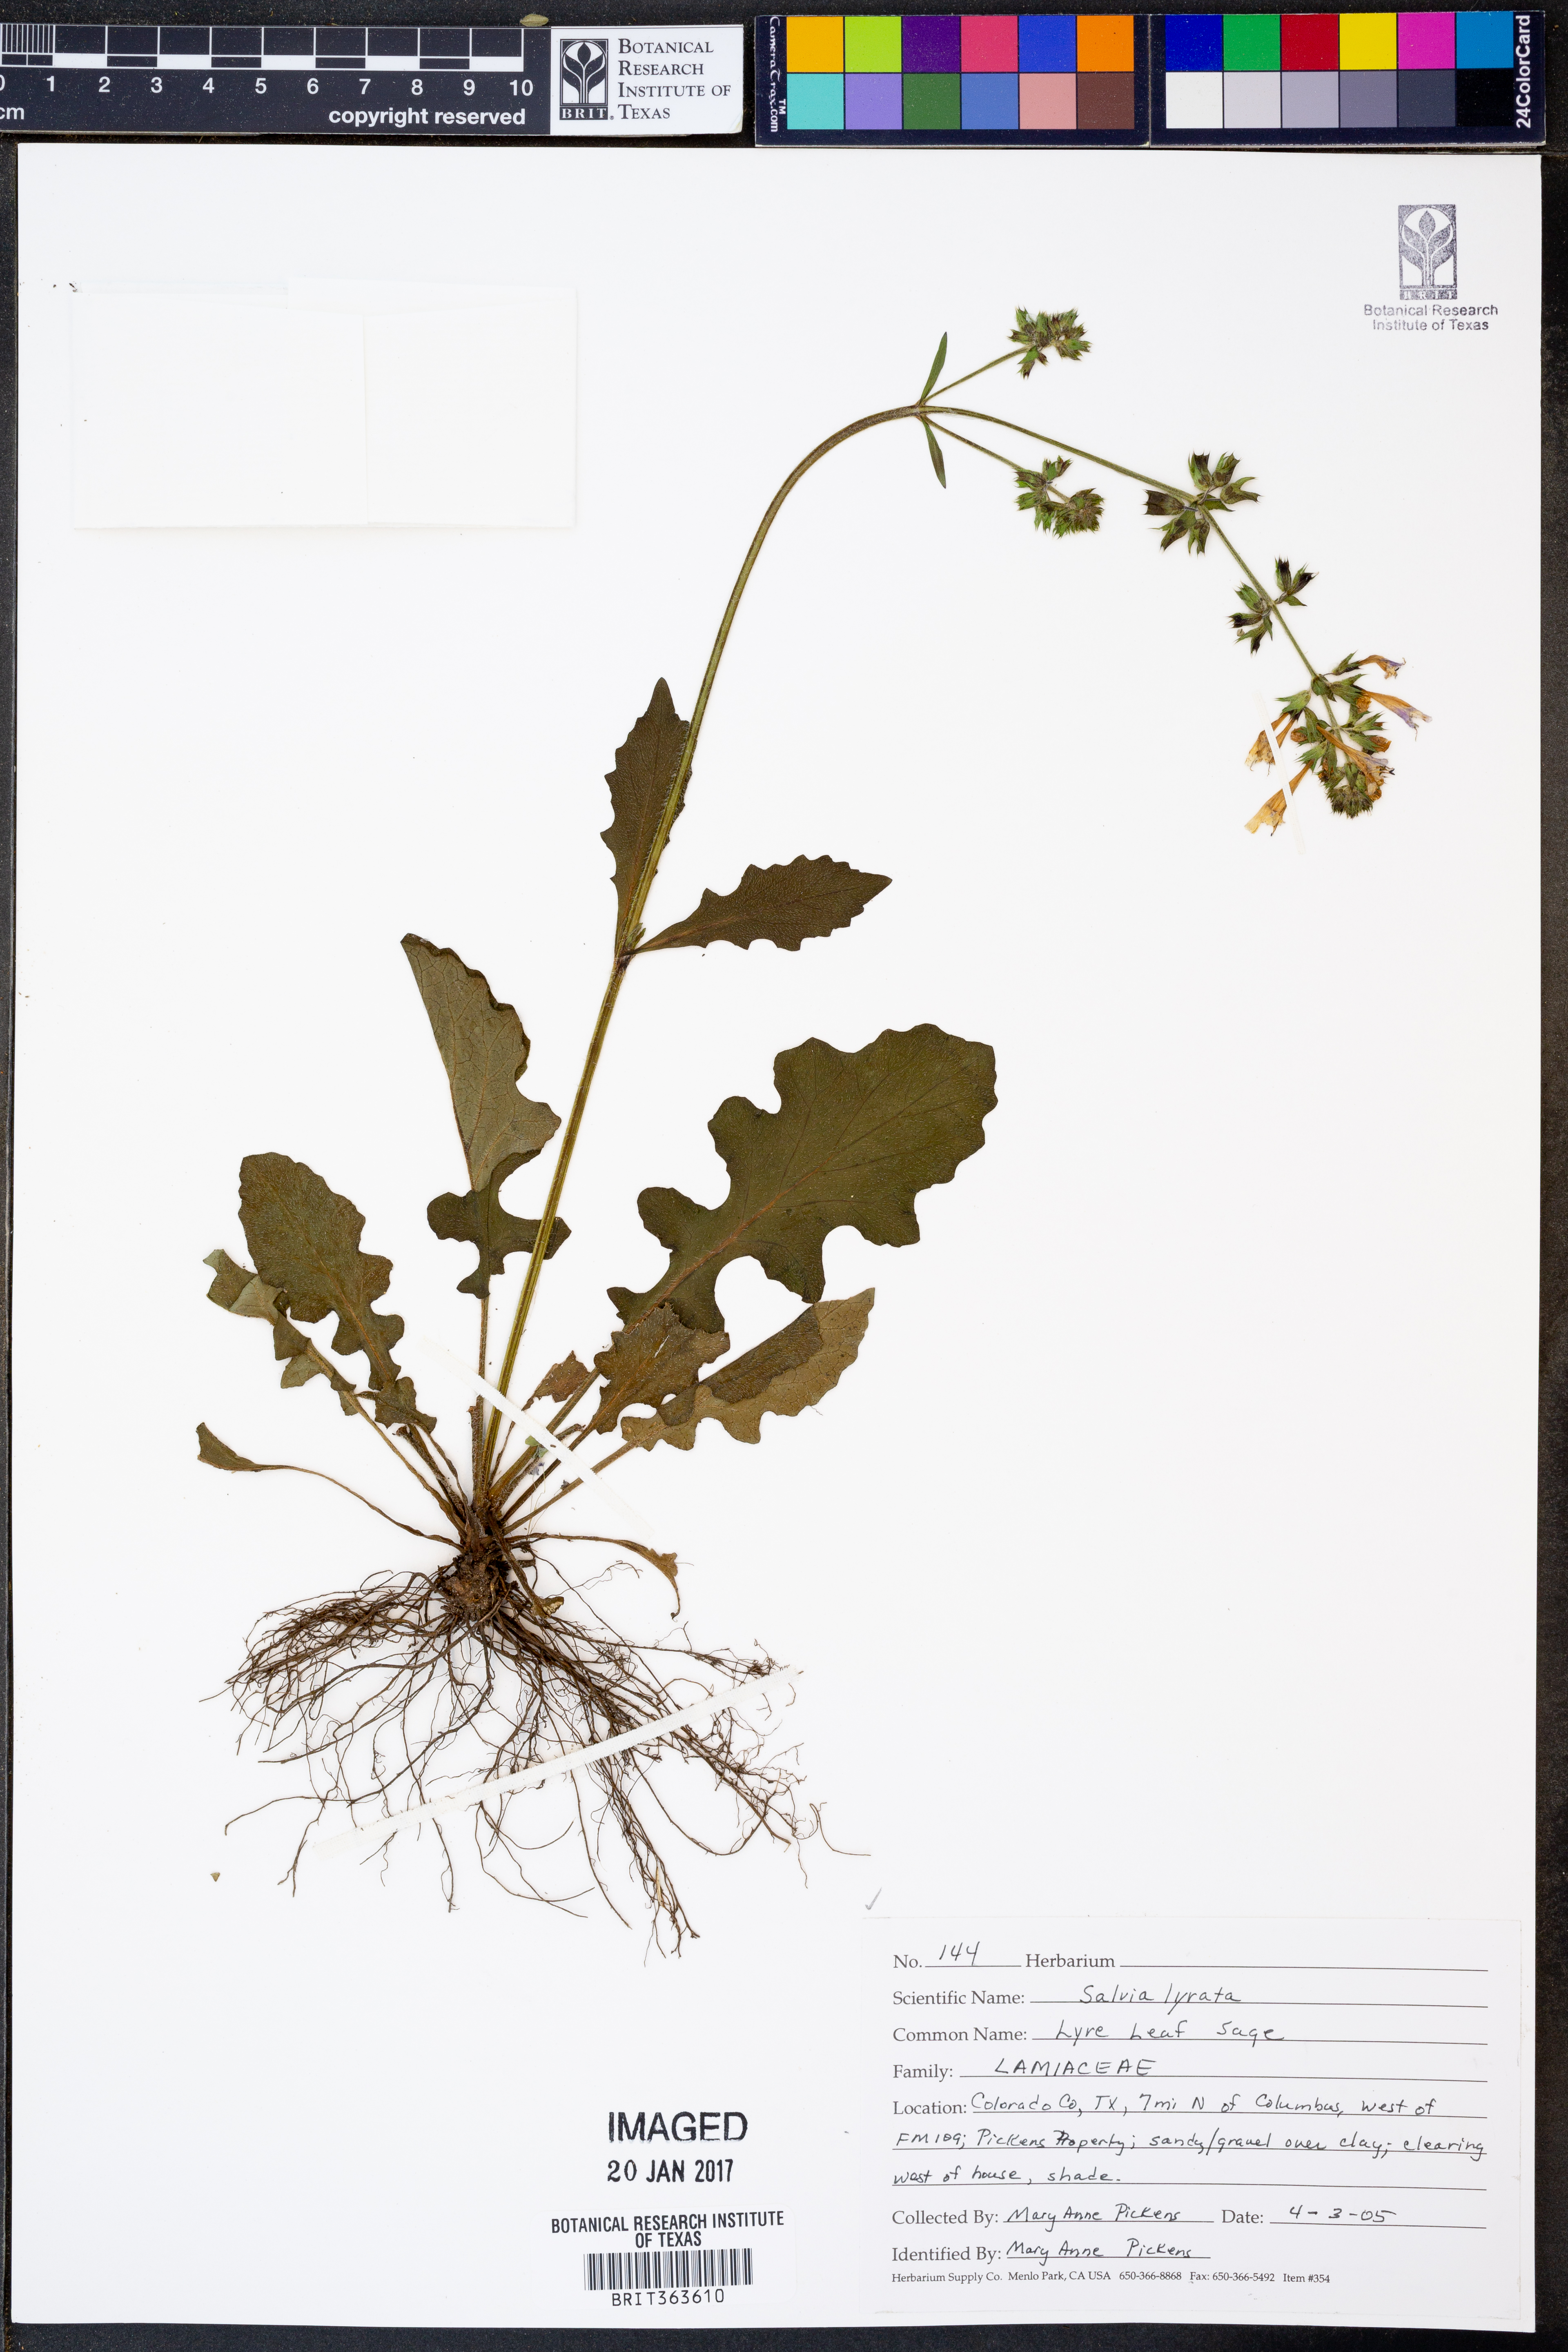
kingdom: Plantae
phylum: Tracheophyta
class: Magnoliopsida
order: Lamiales
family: Lamiaceae
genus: Salvia
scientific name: Salvia lyrata
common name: Cancerweed
